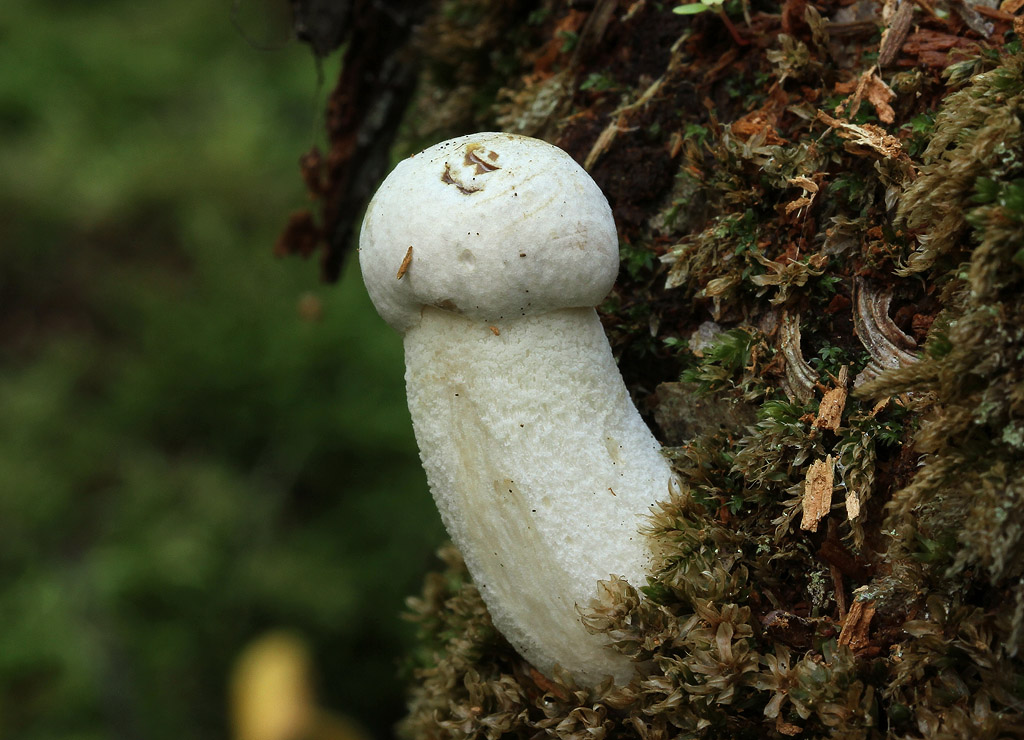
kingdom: Fungi
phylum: Basidiomycota
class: Agaricomycetes
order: Boletales
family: Boletaceae
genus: Leccinum
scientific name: Leccinum scabrum
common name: hvid skælrørhat
